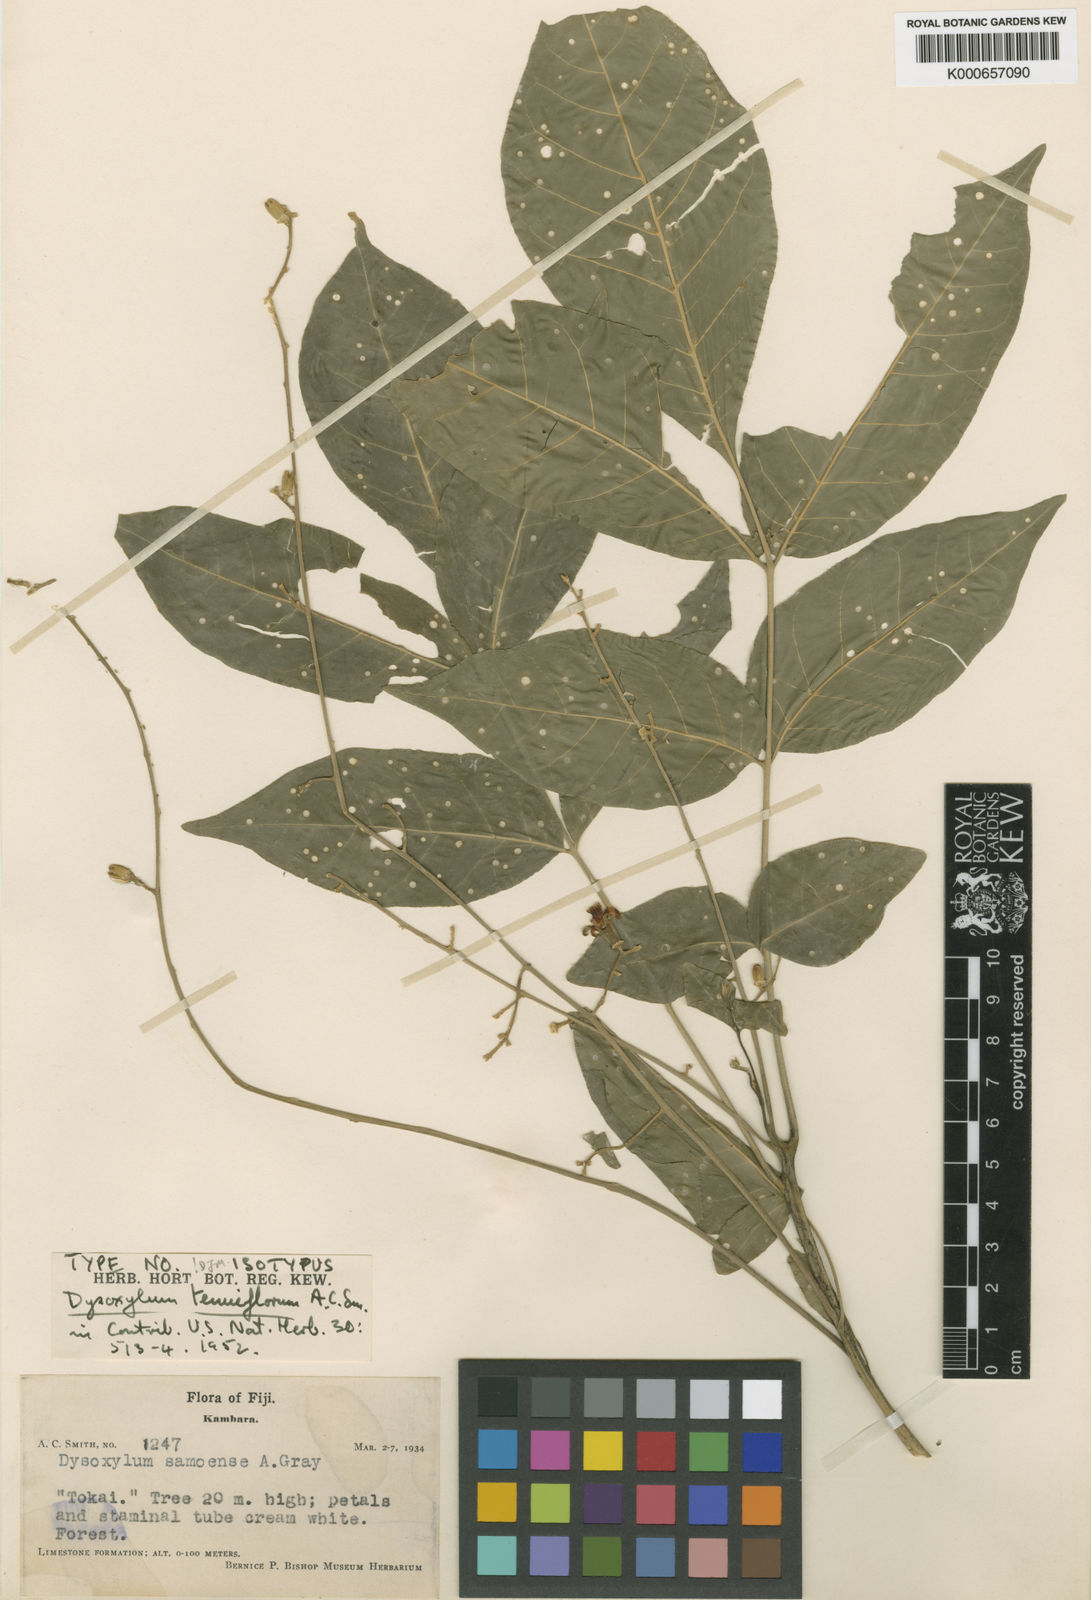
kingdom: Plantae
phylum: Tracheophyta
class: Magnoliopsida
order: Sapindales
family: Meliaceae
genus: Didymocheton
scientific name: Didymocheton tenuiflorus
